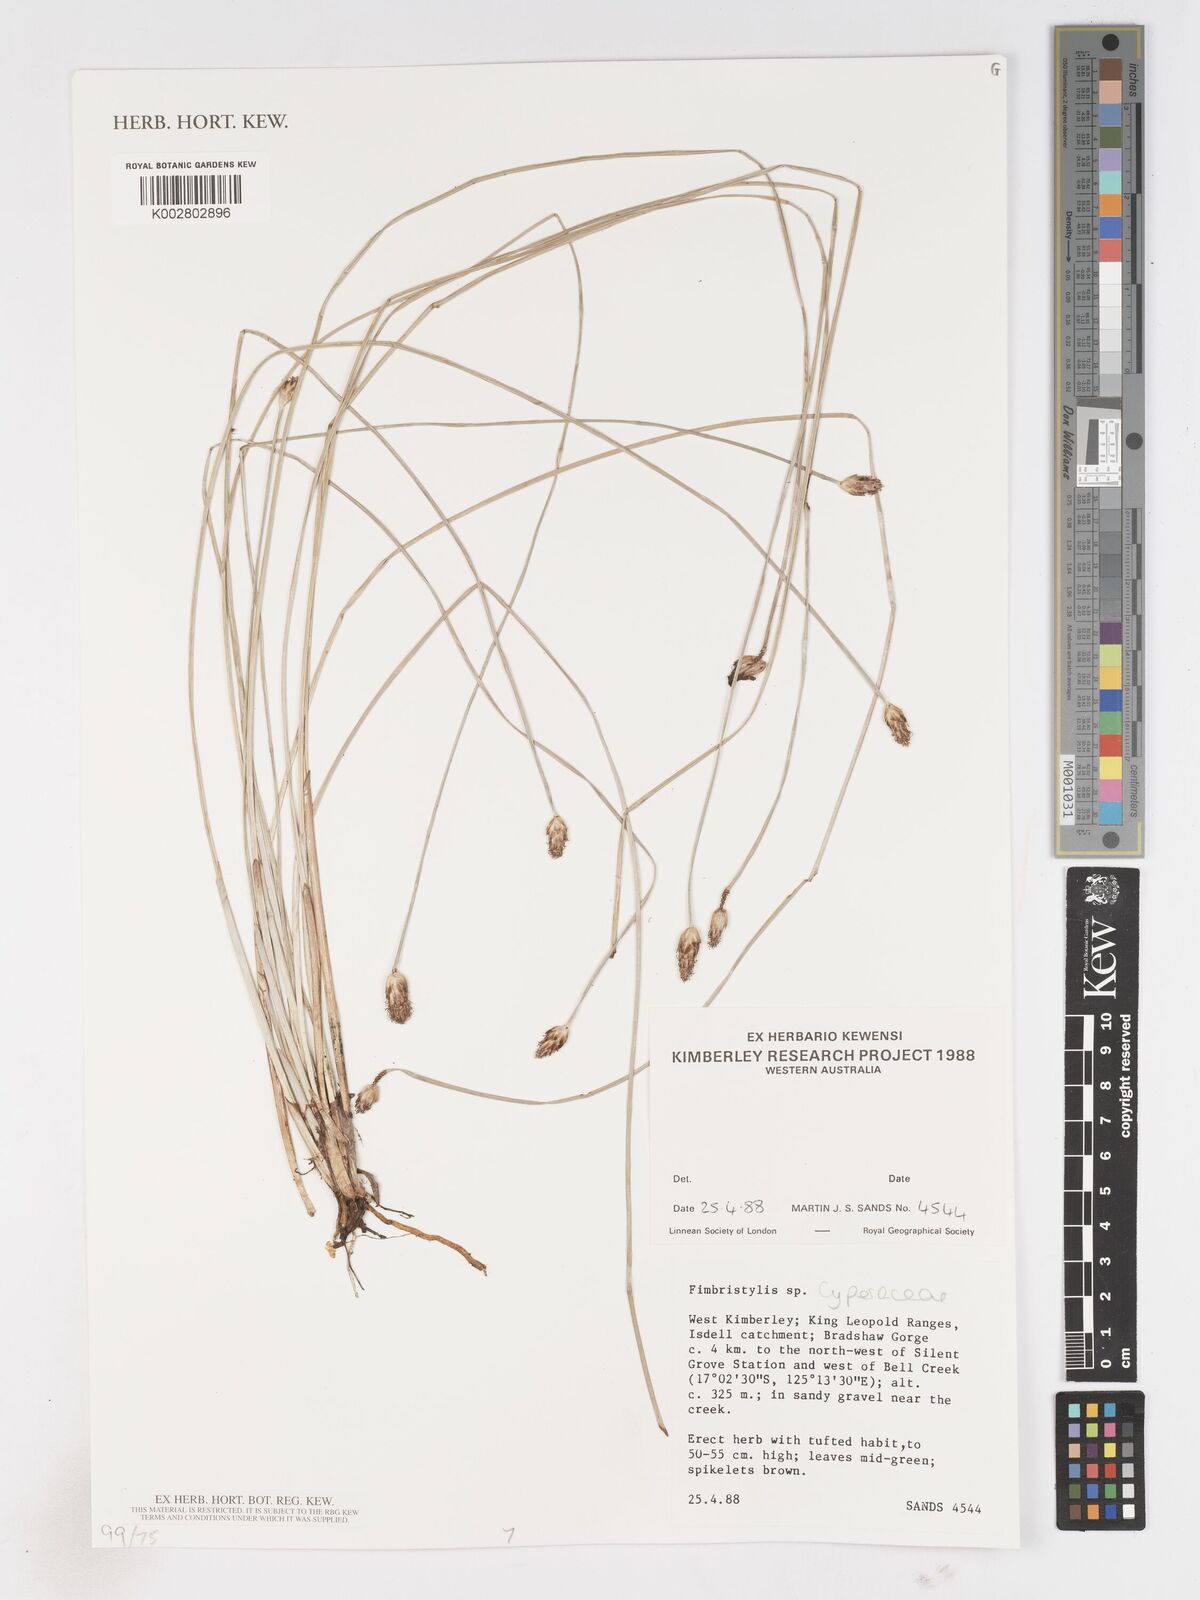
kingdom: Plantae
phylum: Tracheophyta
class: Liliopsida
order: Poales
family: Cyperaceae
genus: Fimbristylis
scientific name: Fimbristylis
